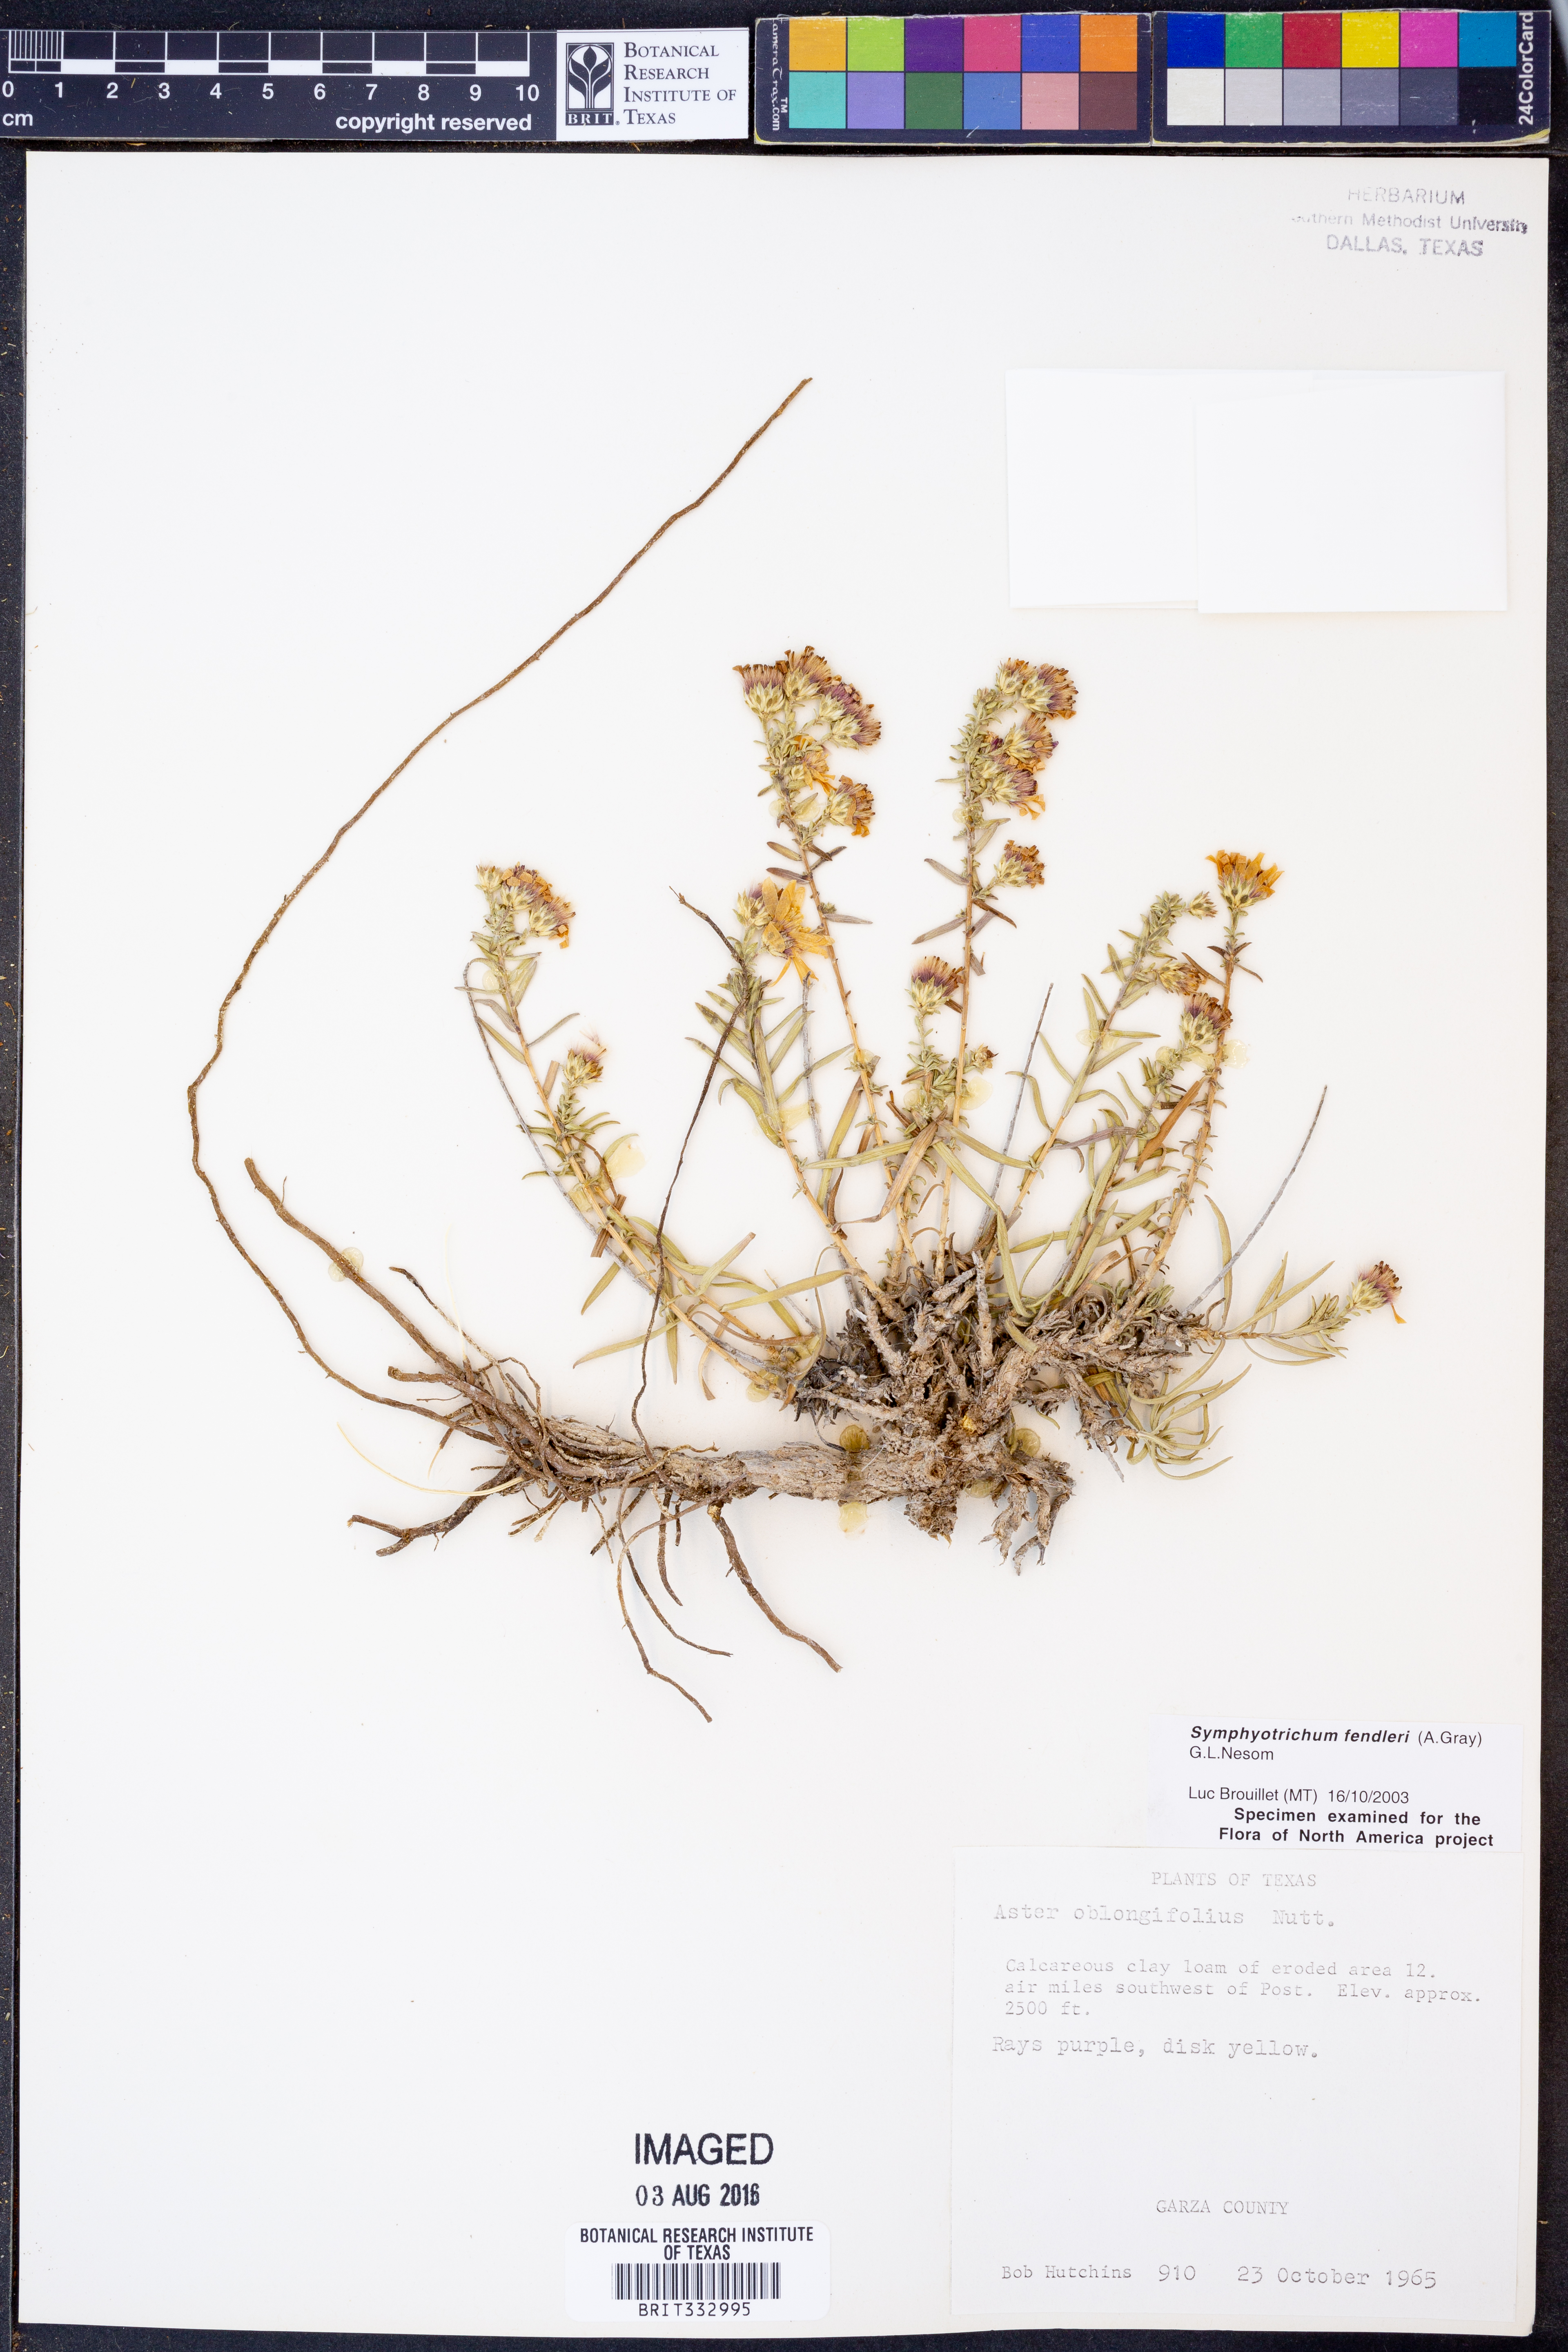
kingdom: Plantae
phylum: Tracheophyta
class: Magnoliopsida
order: Asterales
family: Asteraceae
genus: Symphyotrichum
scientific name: Symphyotrichum fendleri
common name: Fendler's aster
